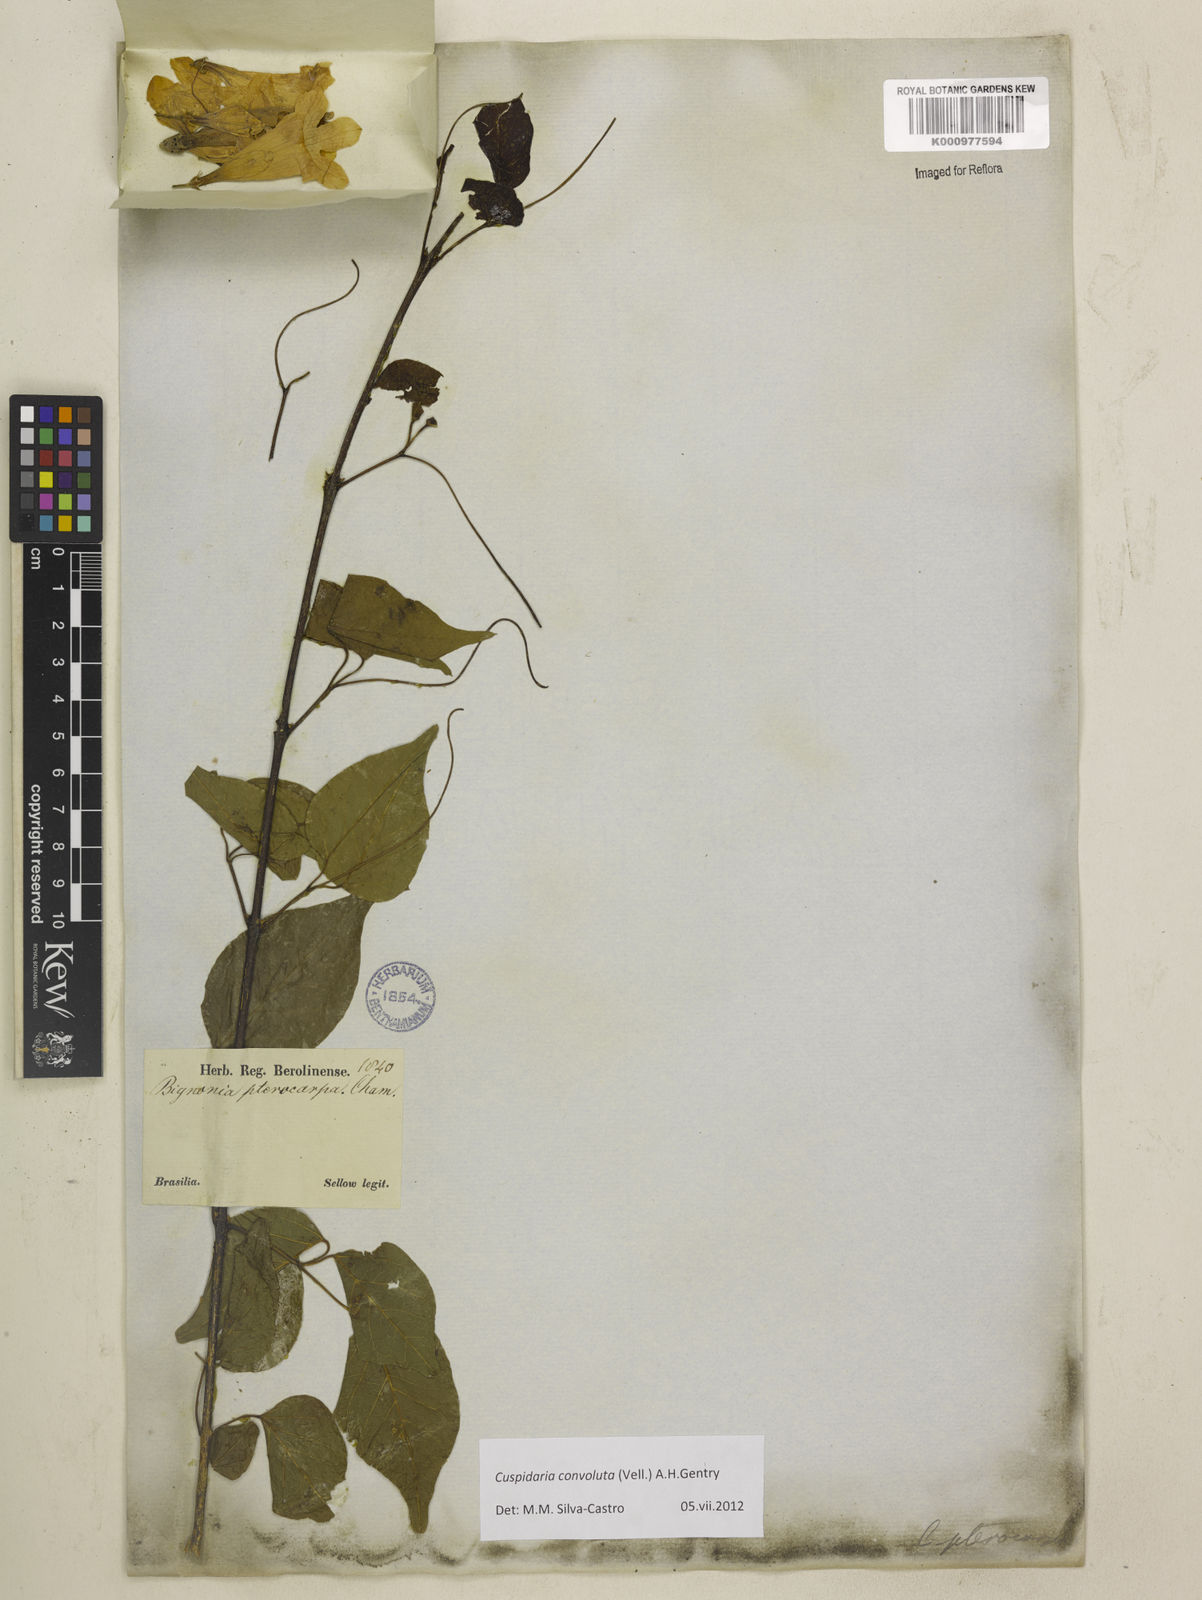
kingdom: Plantae
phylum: Tracheophyta
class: Magnoliopsida
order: Lamiales
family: Bignoniaceae
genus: Cuspidaria
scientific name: Cuspidaria convoluta
